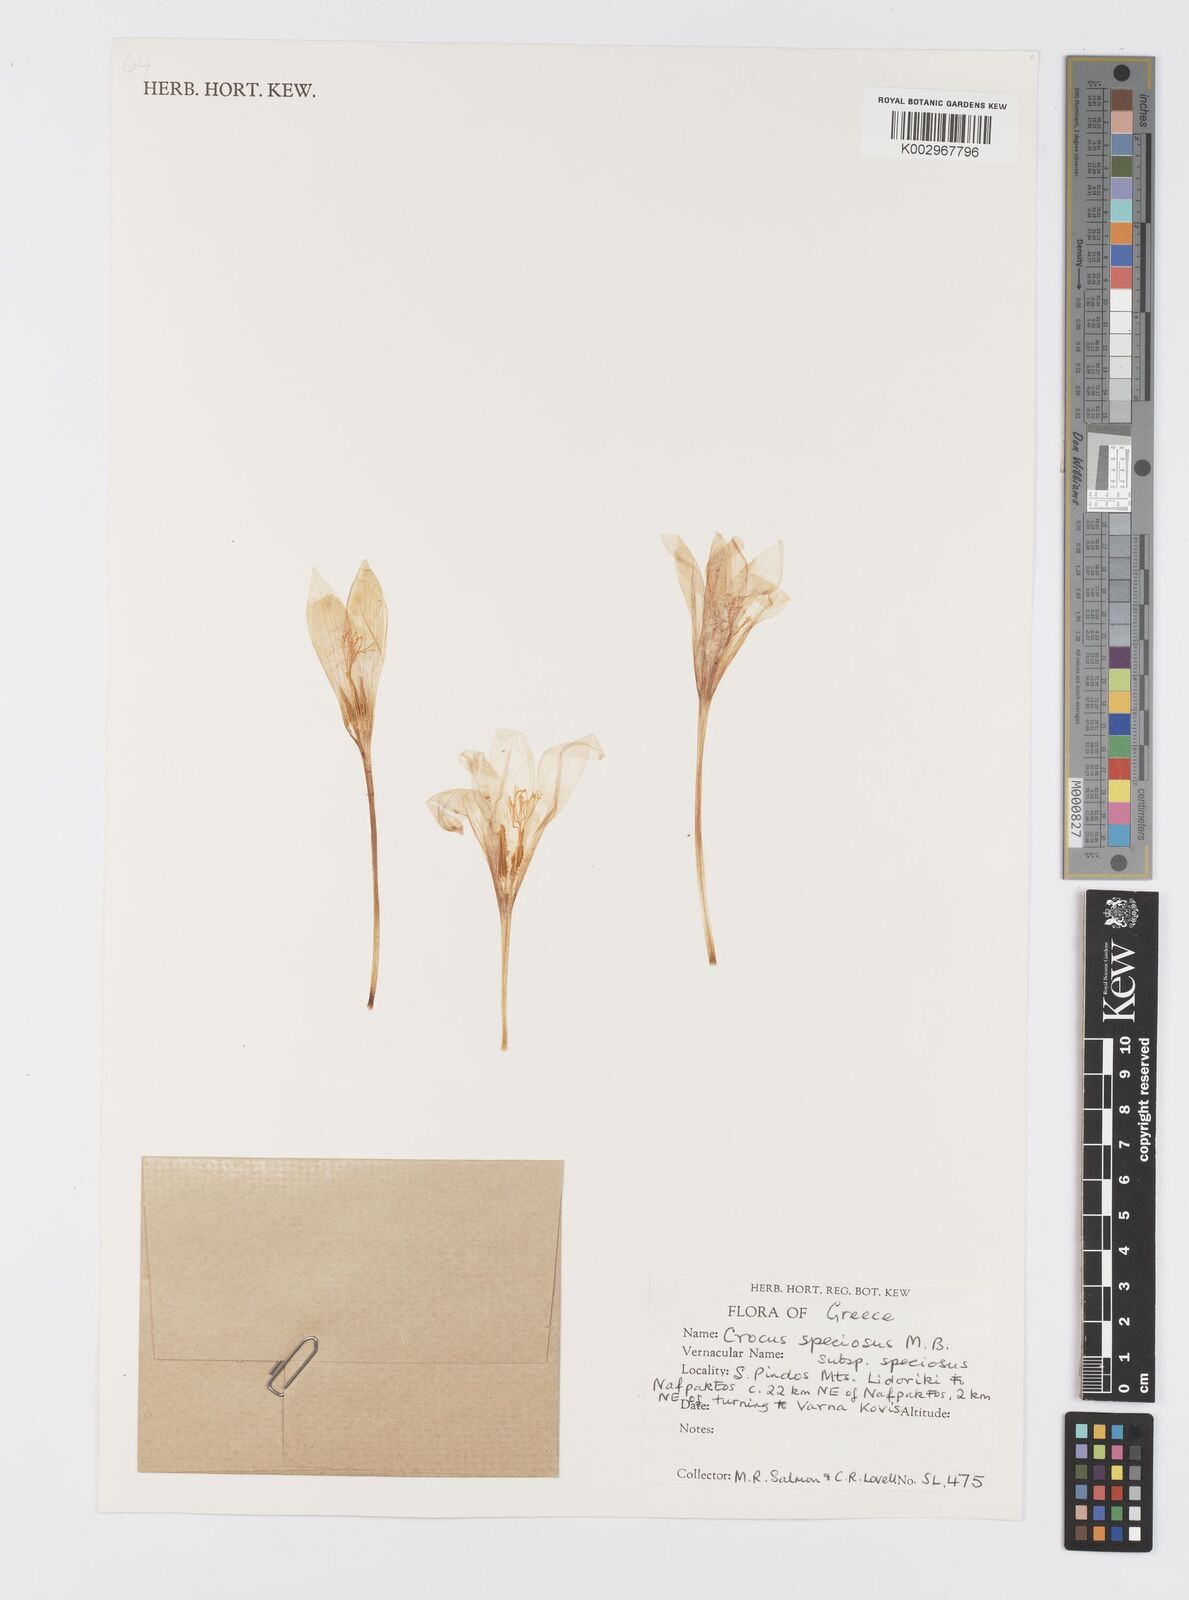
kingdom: Plantae
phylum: Tracheophyta
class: Liliopsida
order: Asparagales
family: Iridaceae
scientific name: Iridaceae
